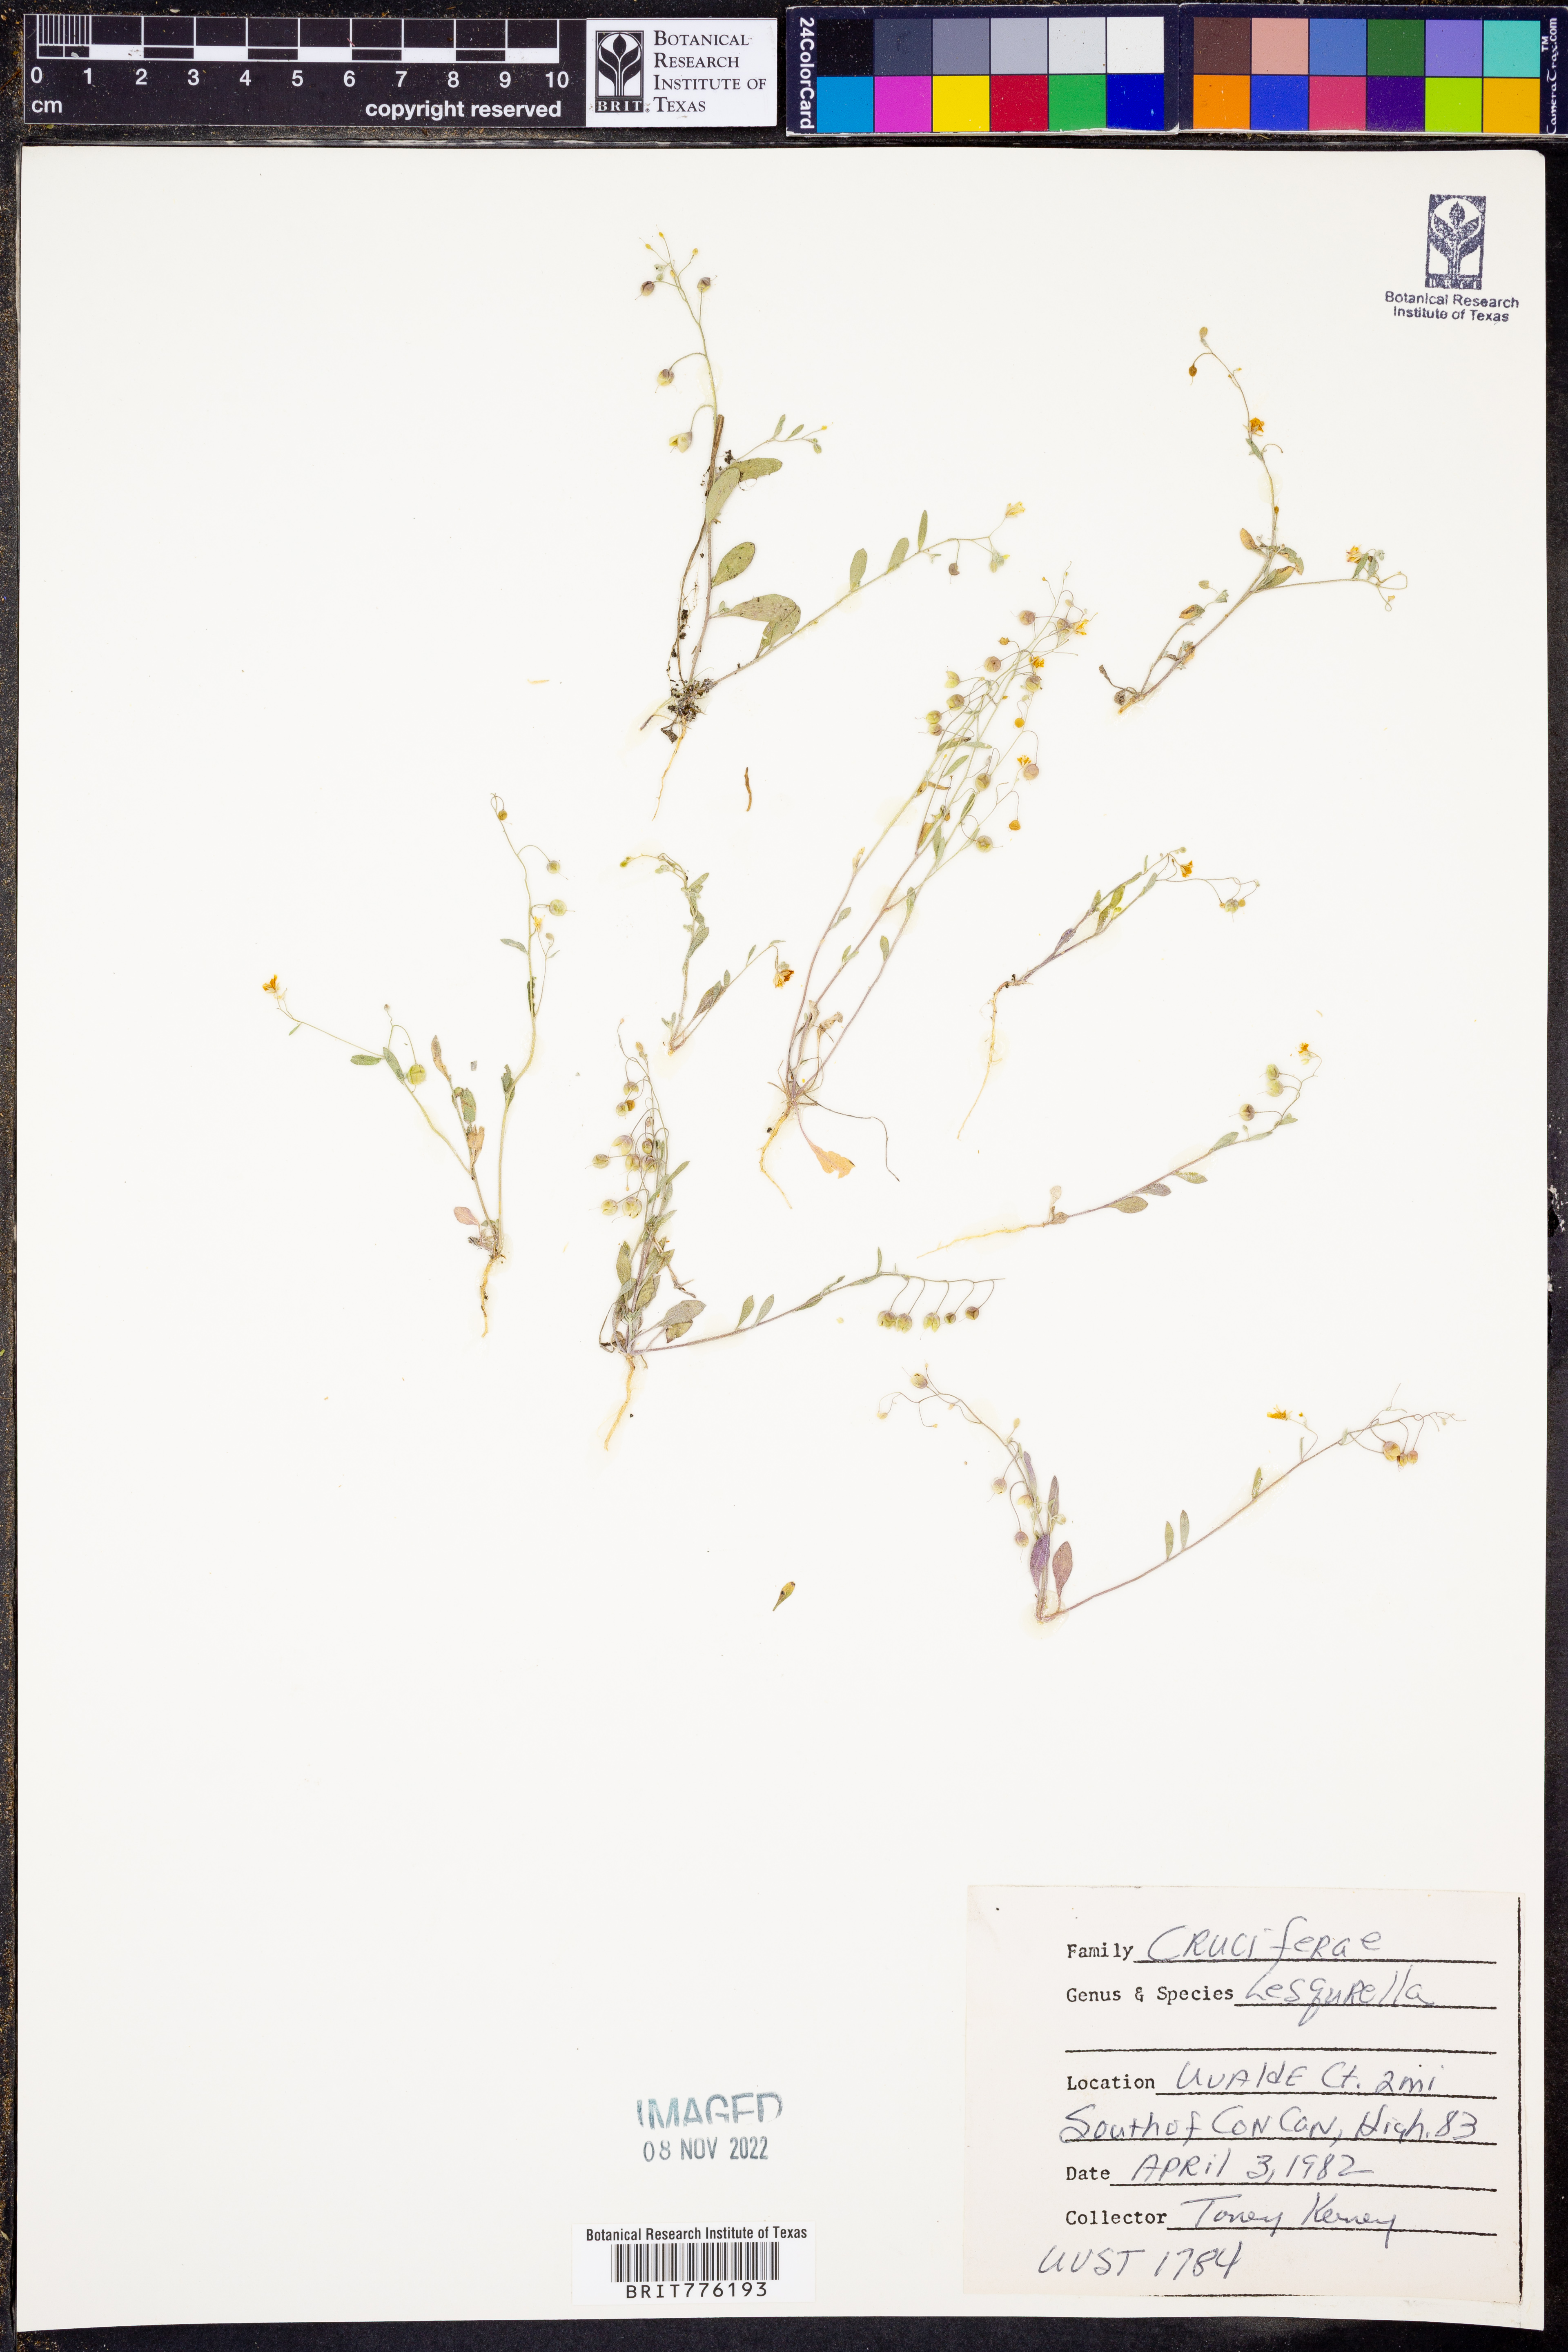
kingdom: Chromista
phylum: Cercozoa
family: Psammonobiotidae
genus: Lesquerella
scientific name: Lesquerella
